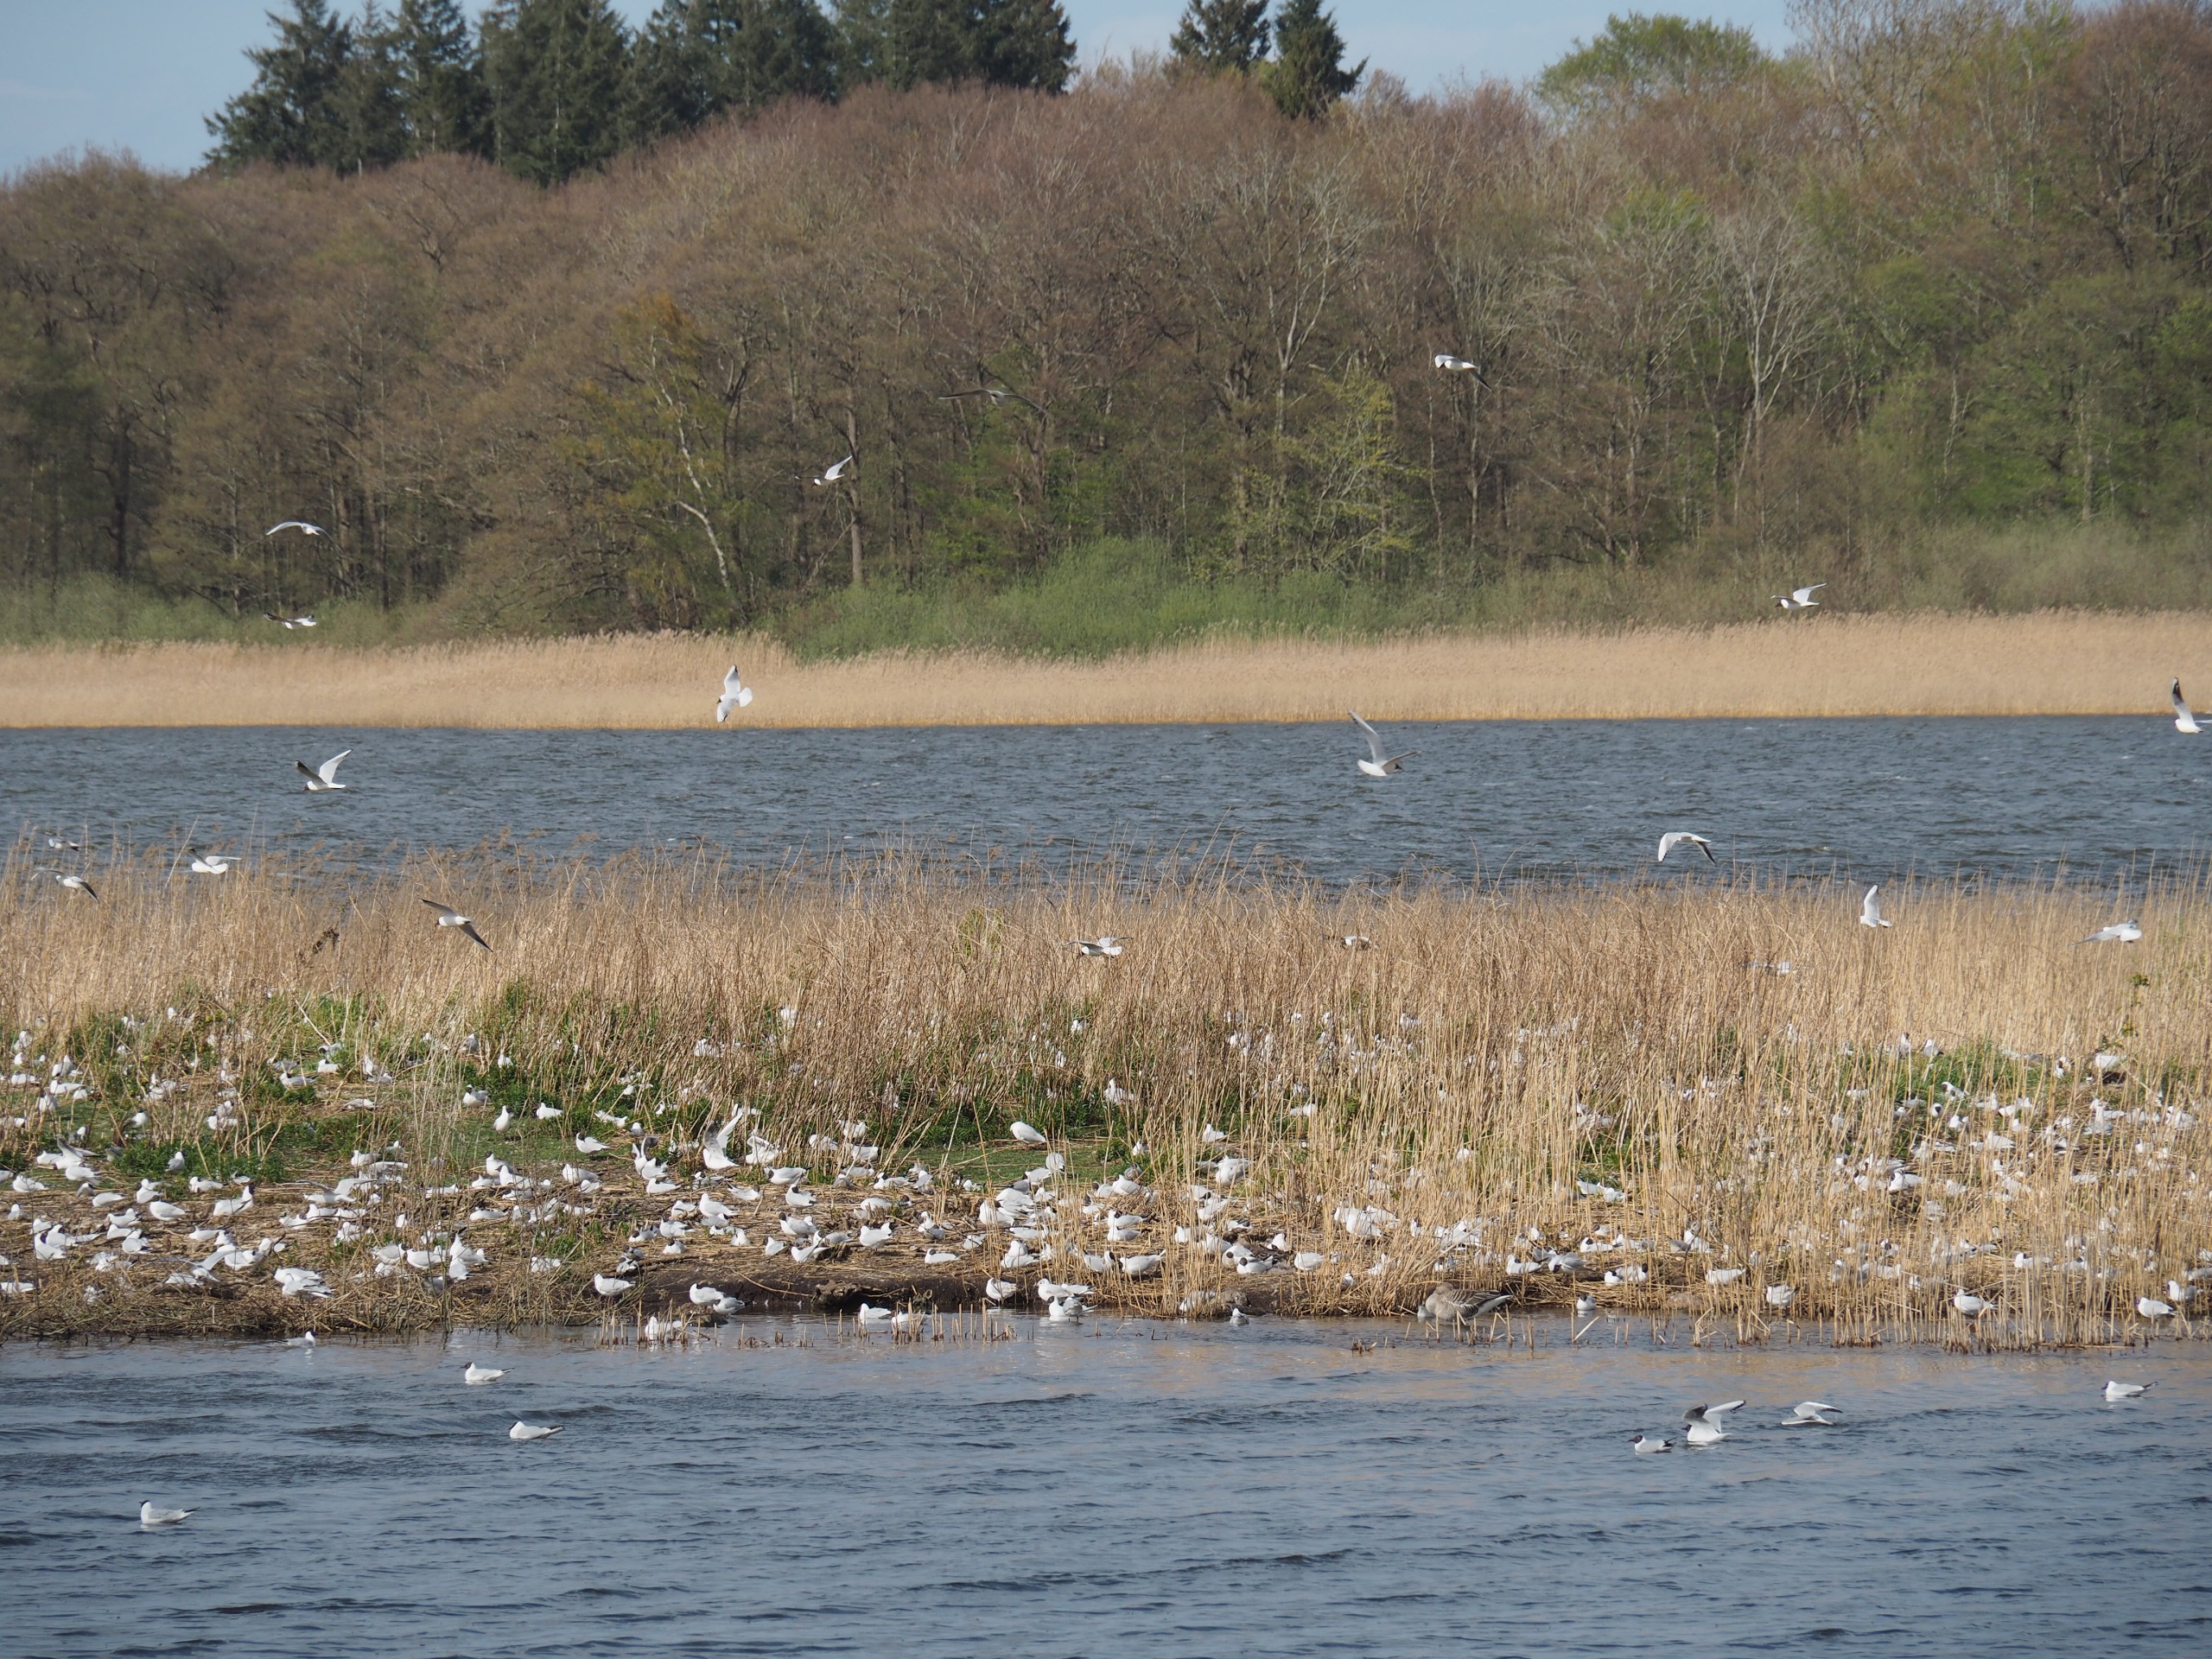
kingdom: Animalia
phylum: Chordata
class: Aves
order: Charadriiformes
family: Laridae
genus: Chroicocephalus
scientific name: Chroicocephalus ridibundus
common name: Hættemåge
